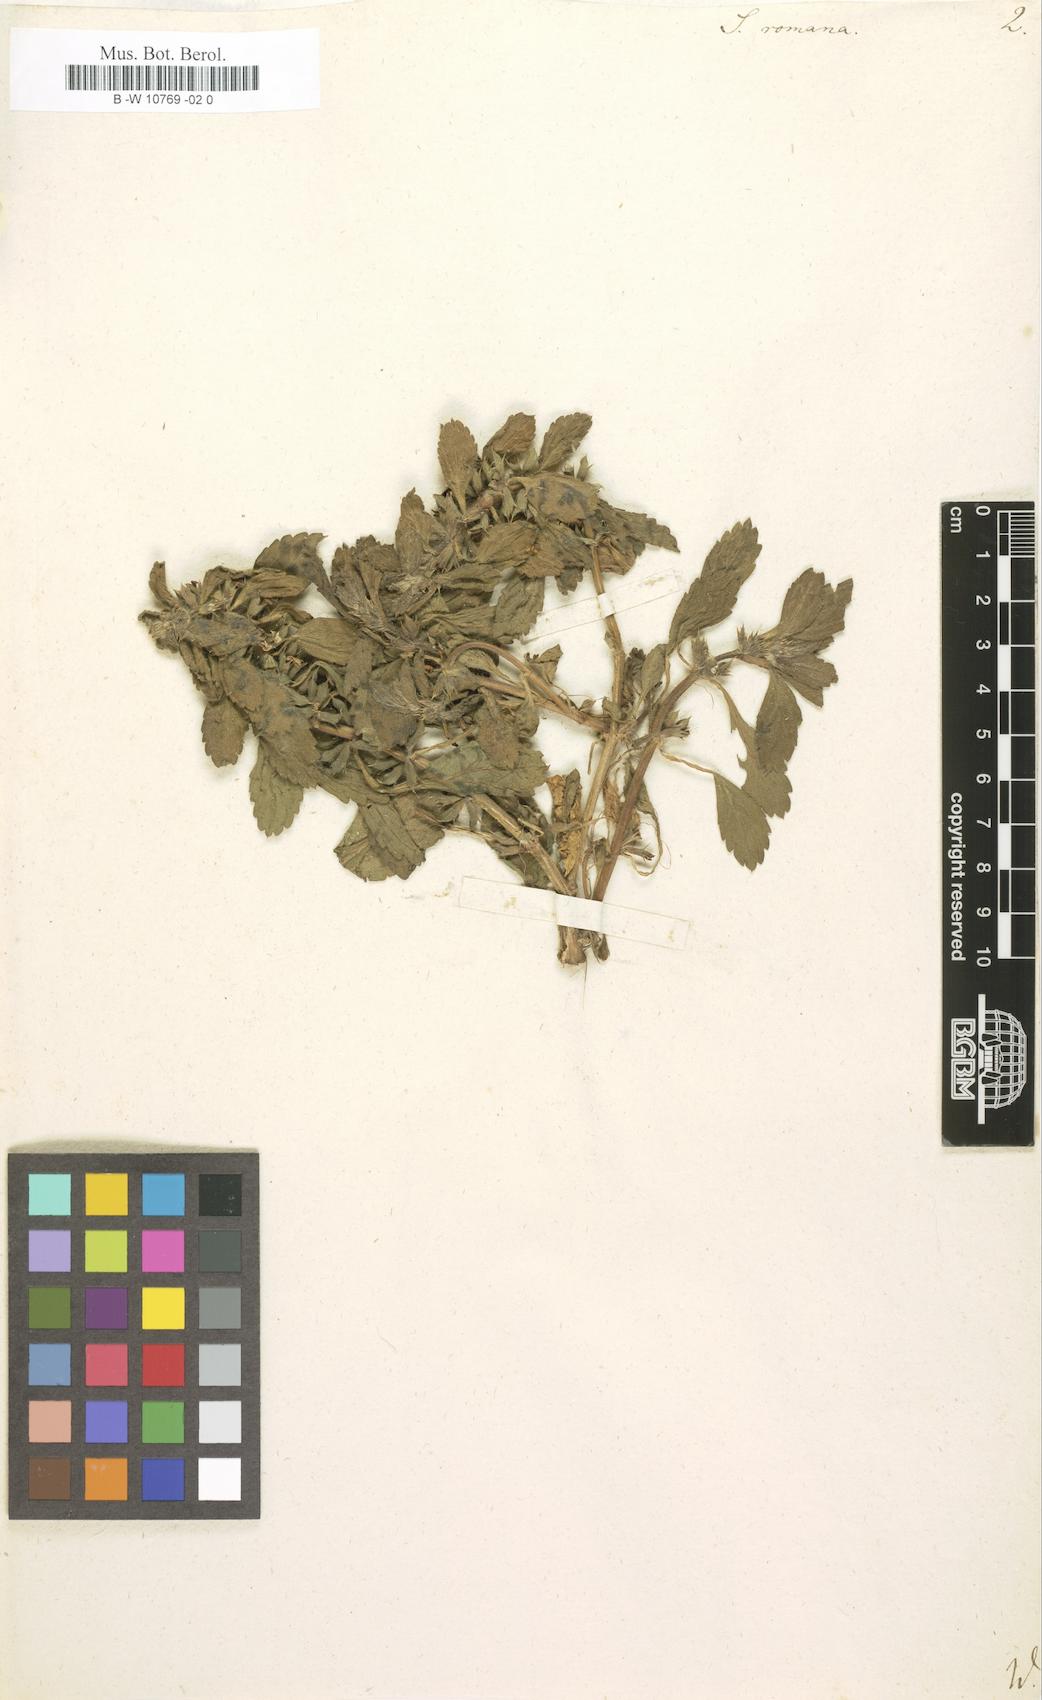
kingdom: Plantae
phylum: Tracheophyta
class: Magnoliopsida
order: Lamiales
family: Lamiaceae
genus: Sideritis
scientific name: Sideritis romana
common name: Simplebeak ironwort
